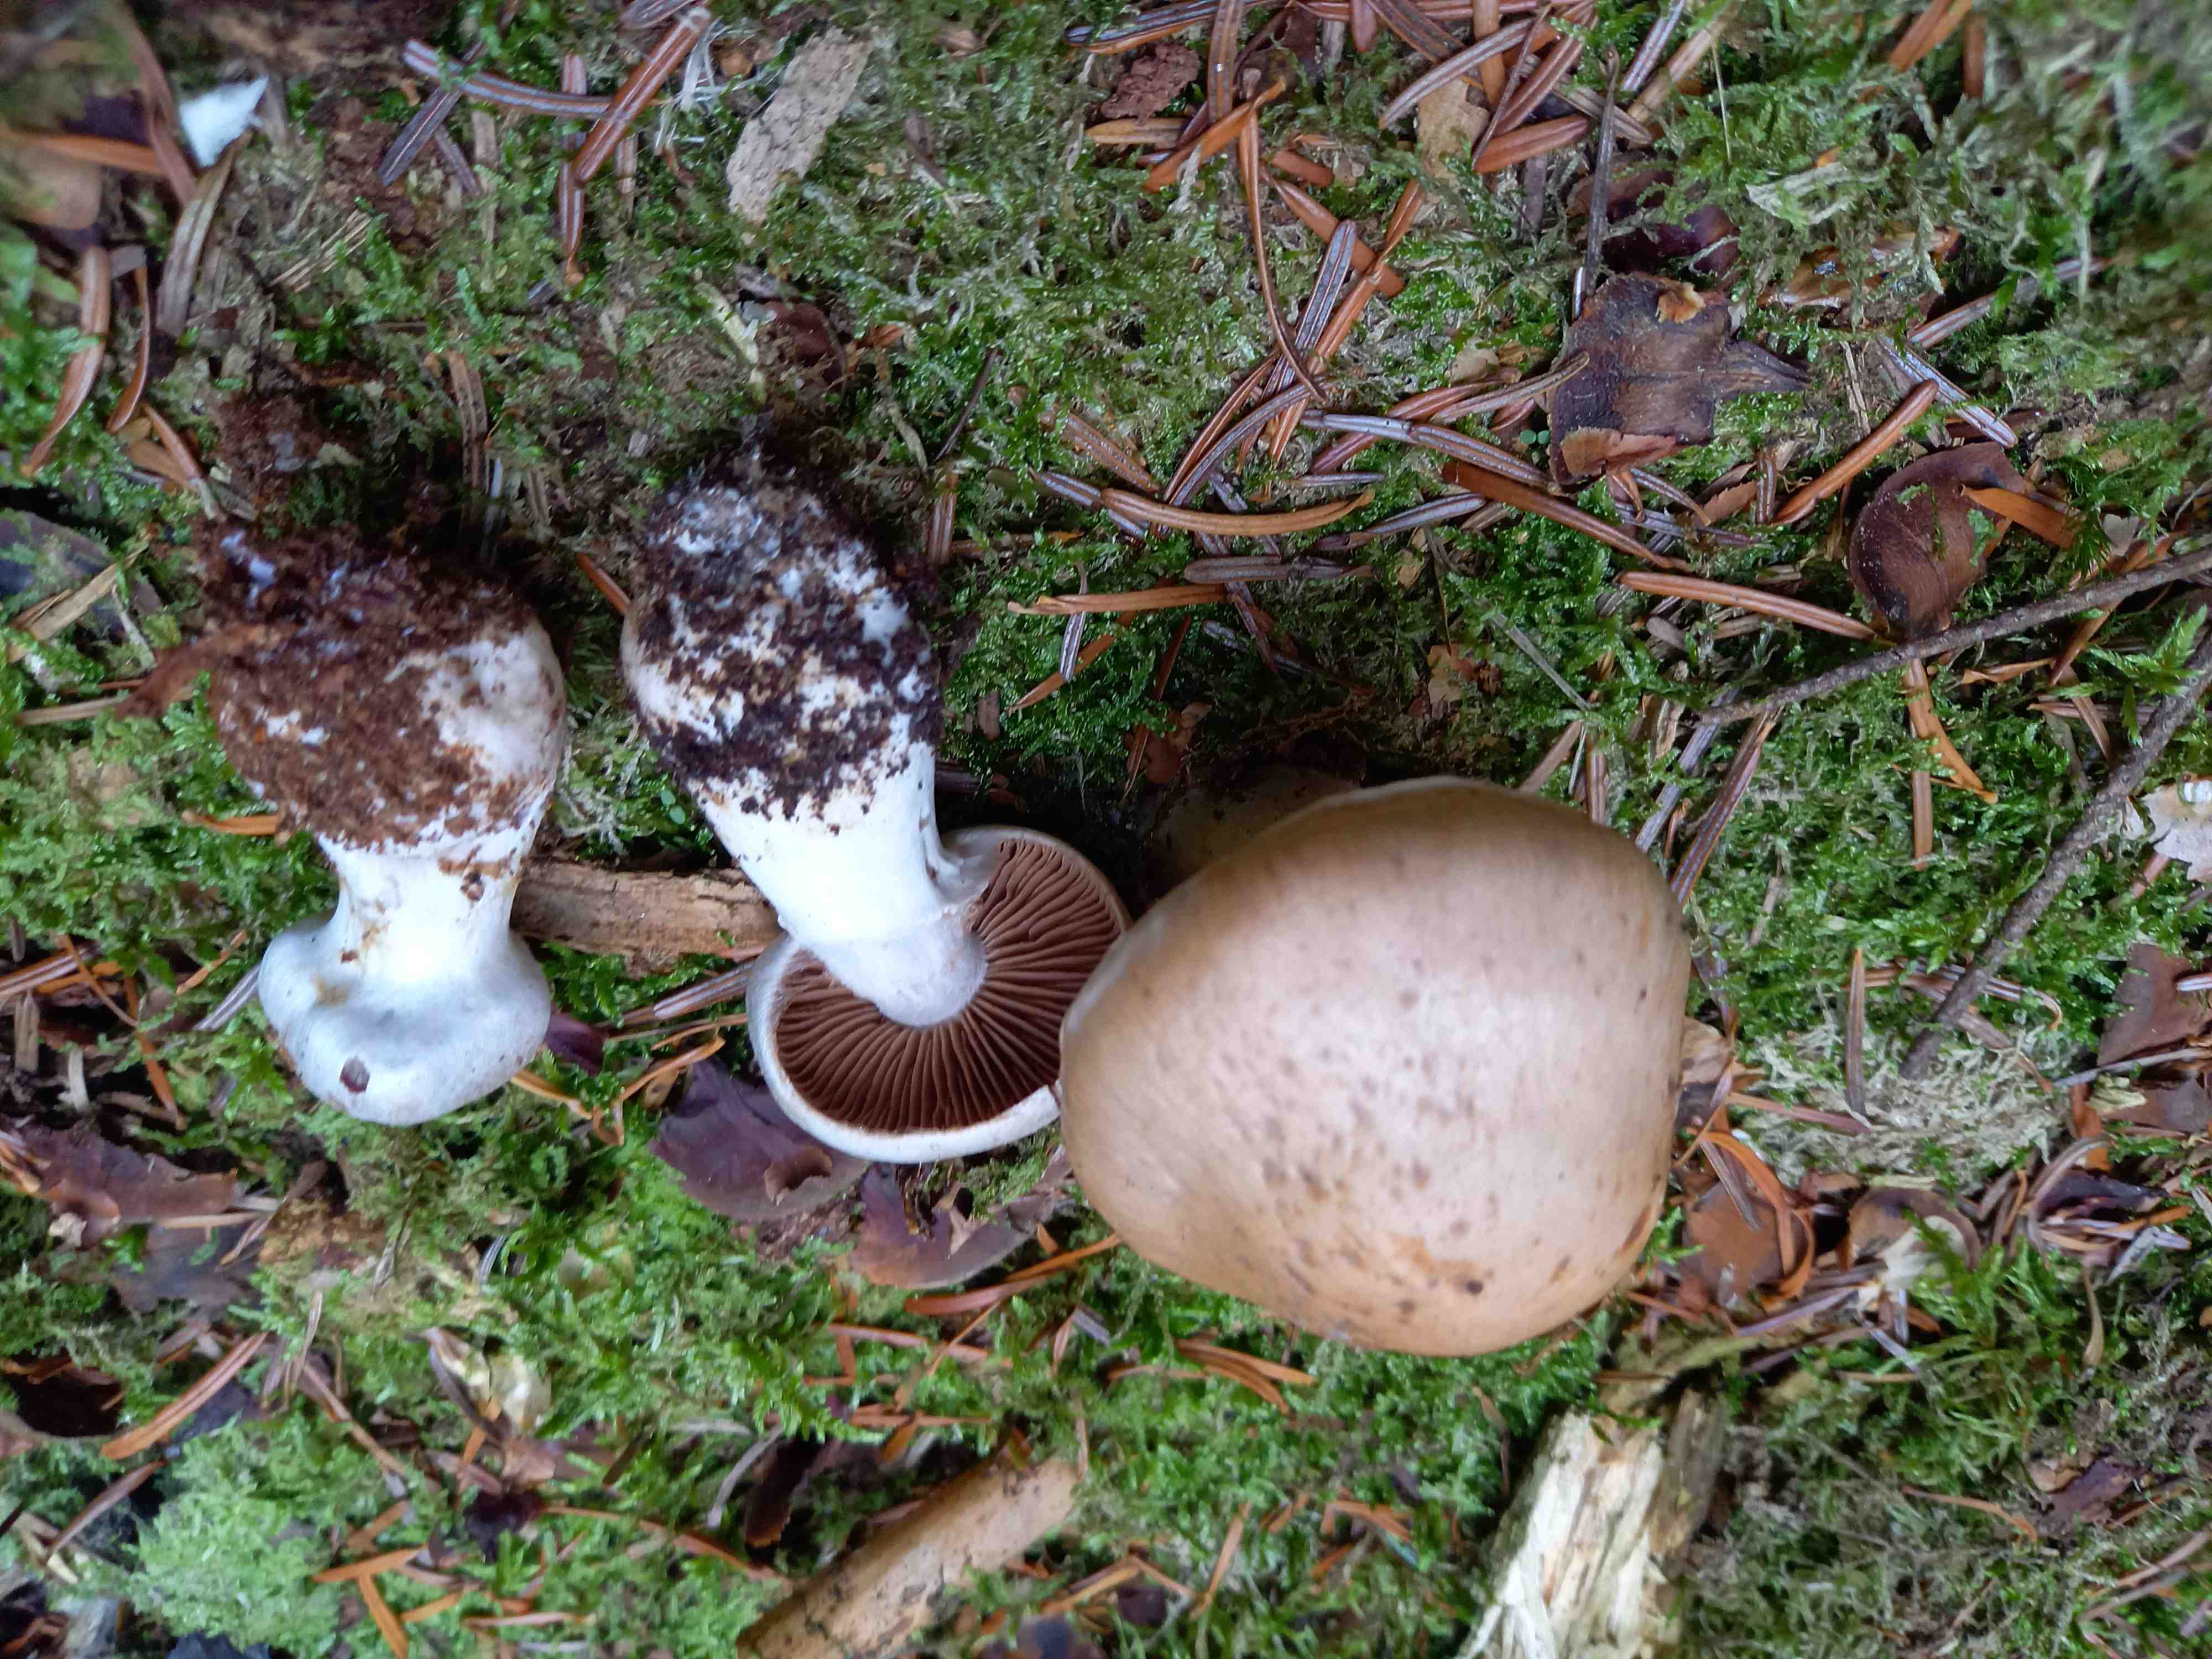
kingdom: Fungi
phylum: Basidiomycota
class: Agaricomycetes
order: Agaricales
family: Cortinariaceae
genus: Cortinarius
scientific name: Cortinarius
